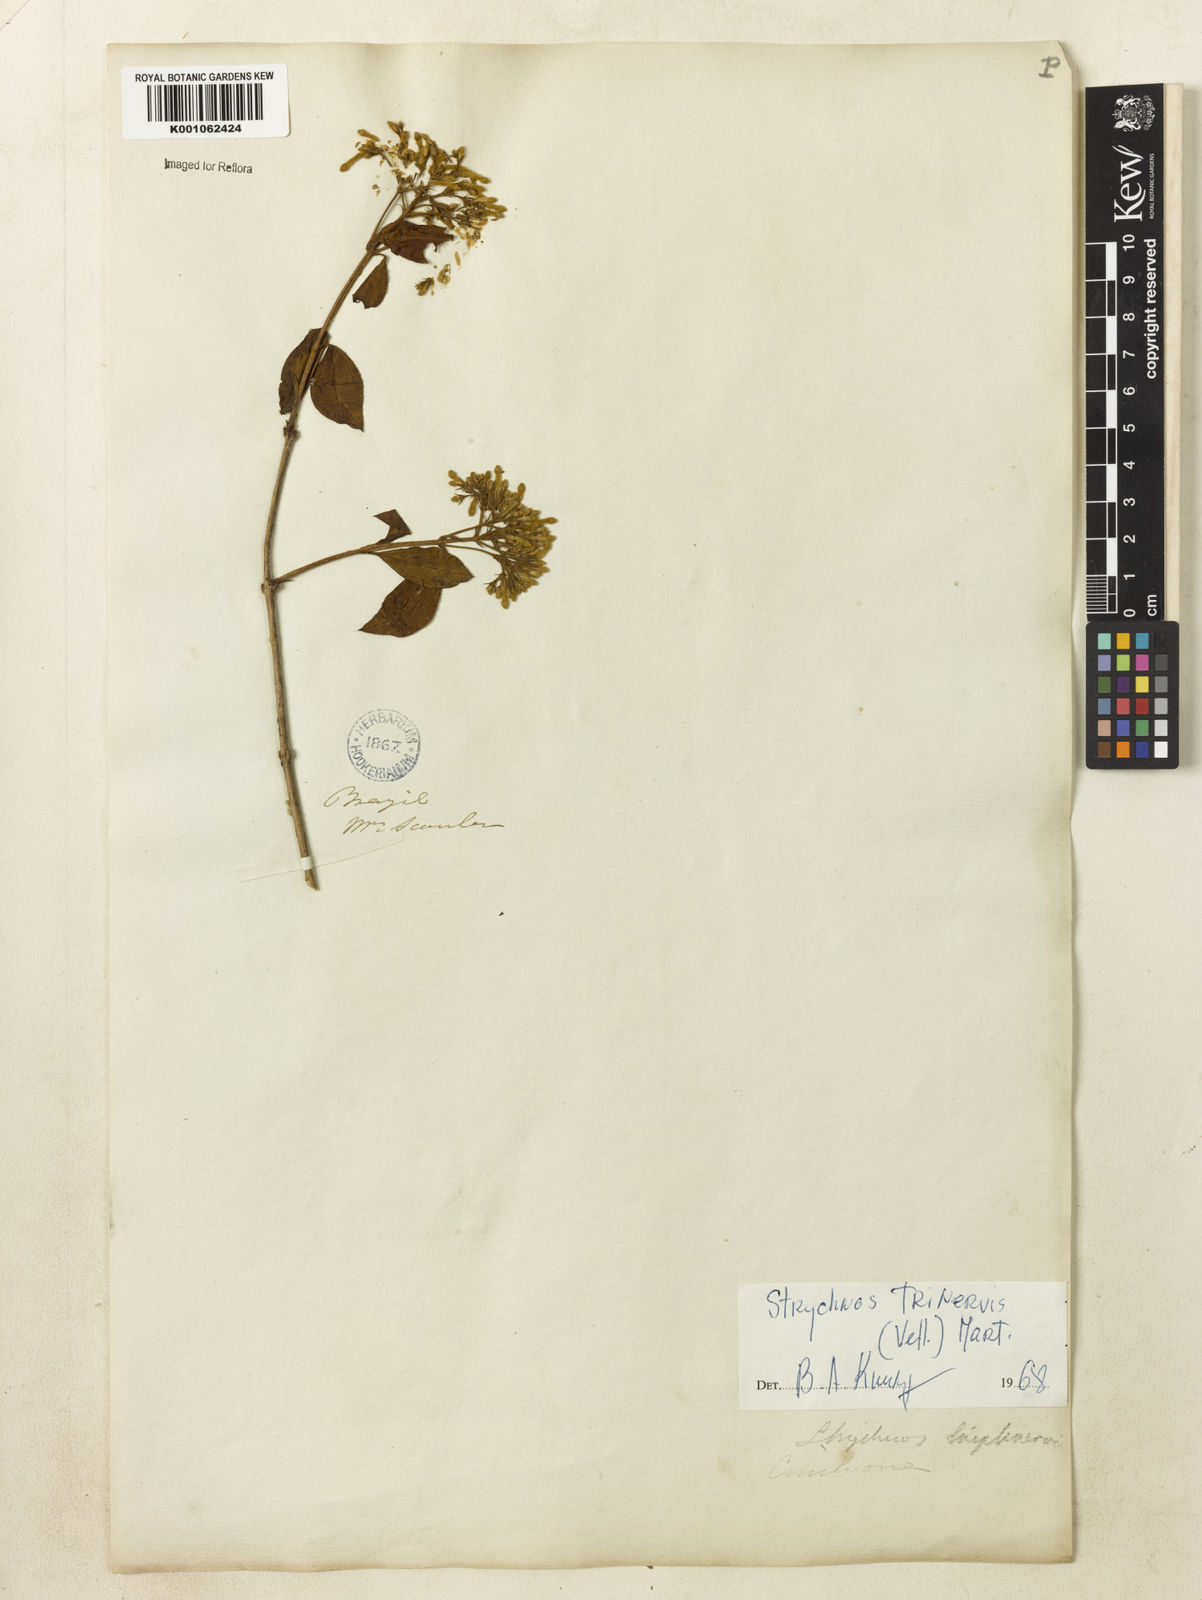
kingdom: Plantae
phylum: Tracheophyta
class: Magnoliopsida
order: Gentianales
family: Loganiaceae
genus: Strychnos
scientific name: Strychnos
